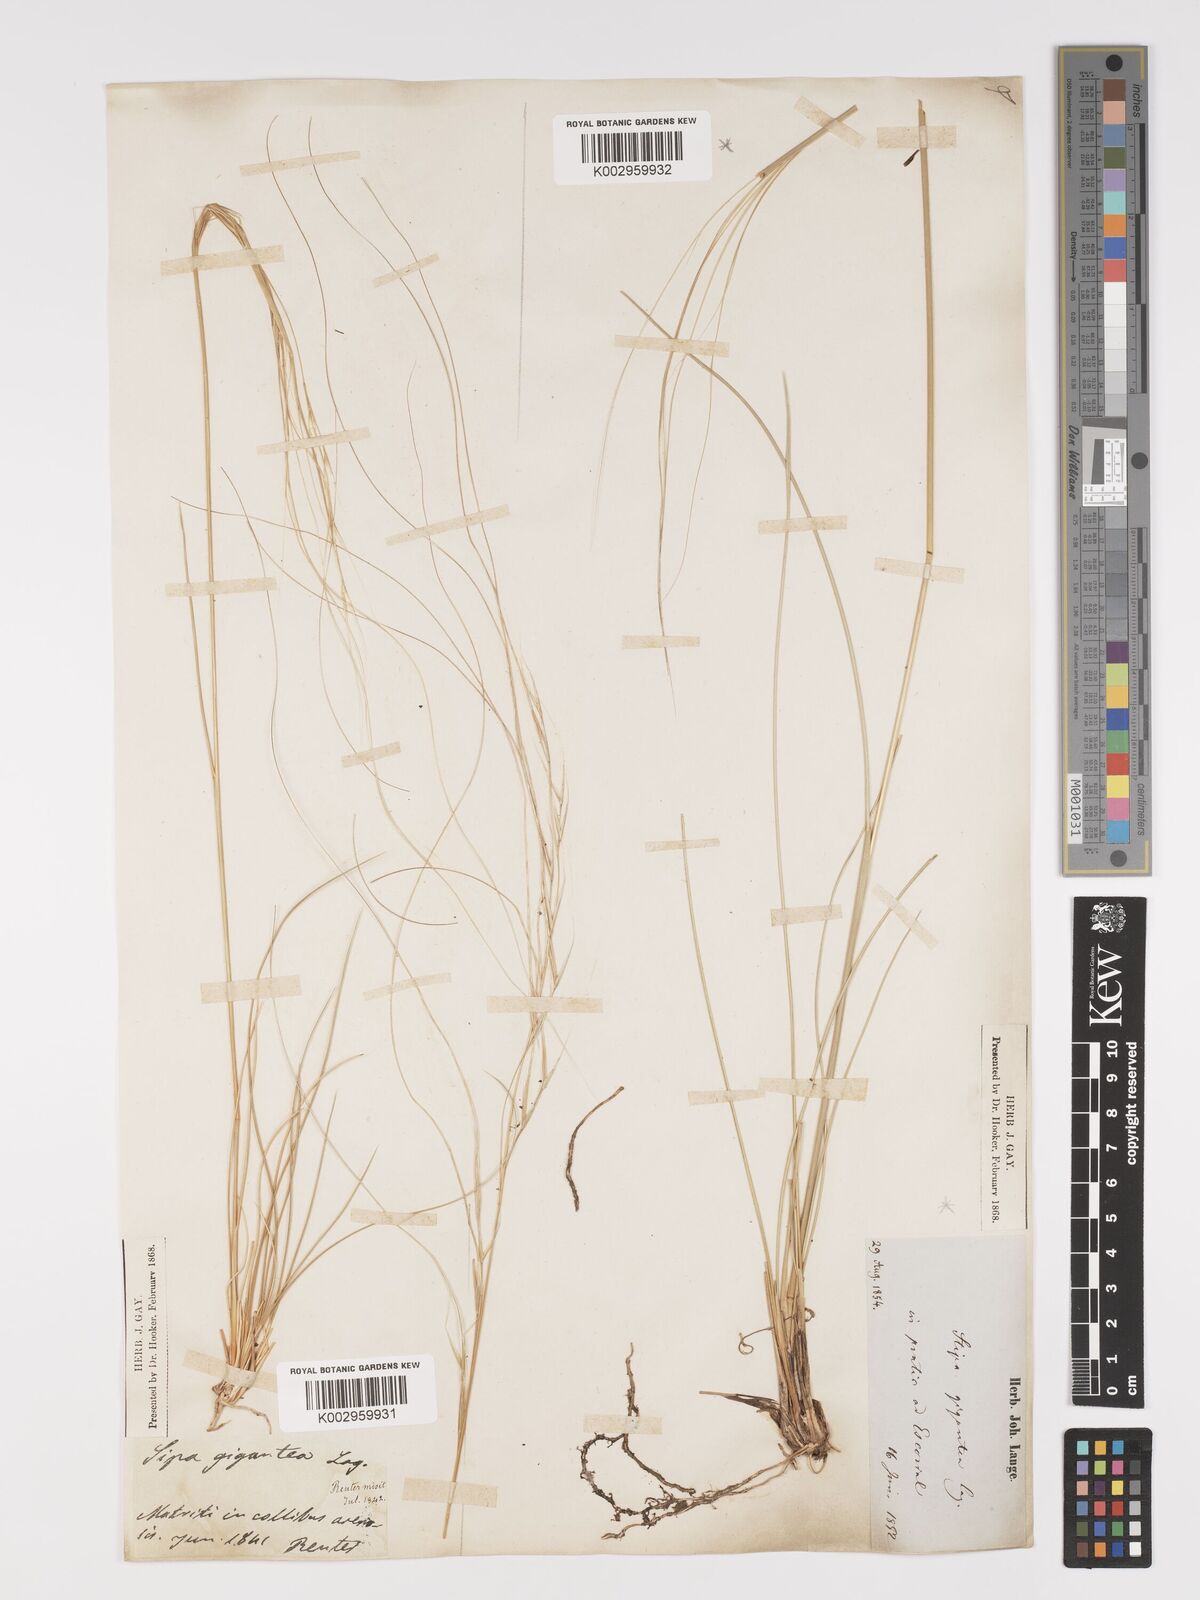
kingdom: Plantae
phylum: Tracheophyta
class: Liliopsida
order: Poales
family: Poaceae
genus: Stipa
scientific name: Stipa
